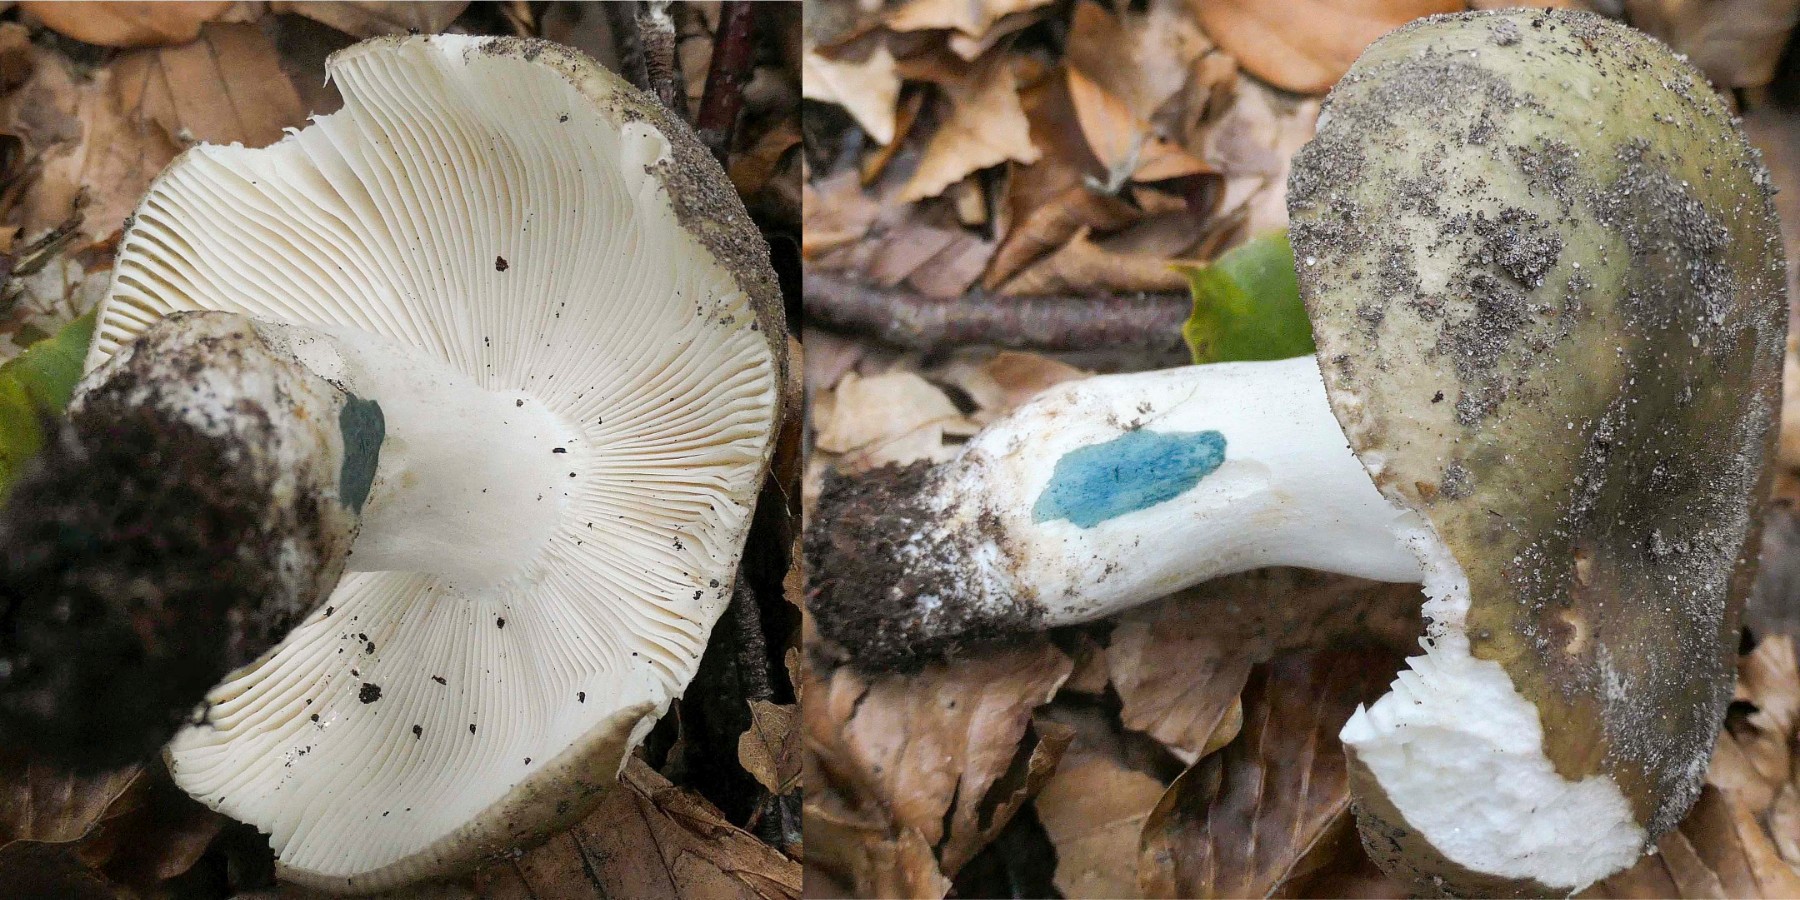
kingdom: Fungi
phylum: Basidiomycota
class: Agaricomycetes
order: Russulales
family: Russulaceae
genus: Russula
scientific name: Russula heterophylla
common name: gaffelbladet skørhat
